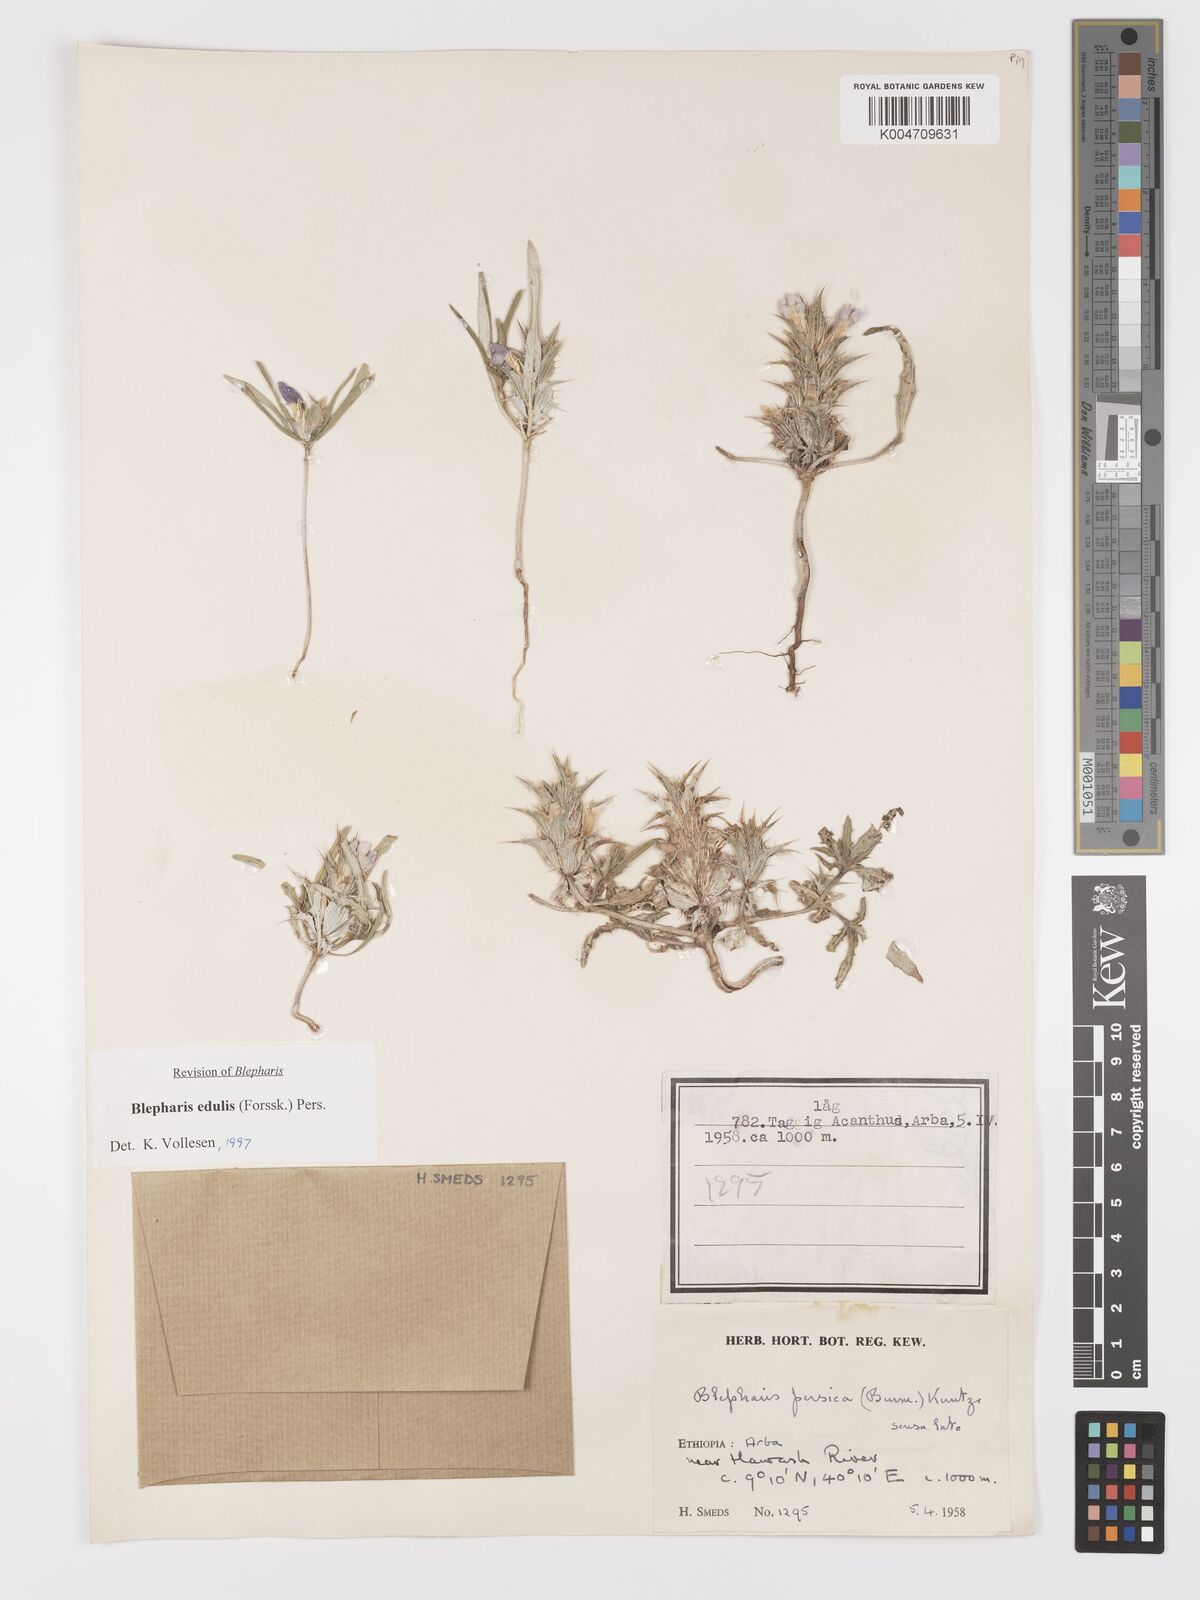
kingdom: Plantae
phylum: Tracheophyta
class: Magnoliopsida
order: Lamiales
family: Acanthaceae
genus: Blepharis
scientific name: Blepharis edulis
